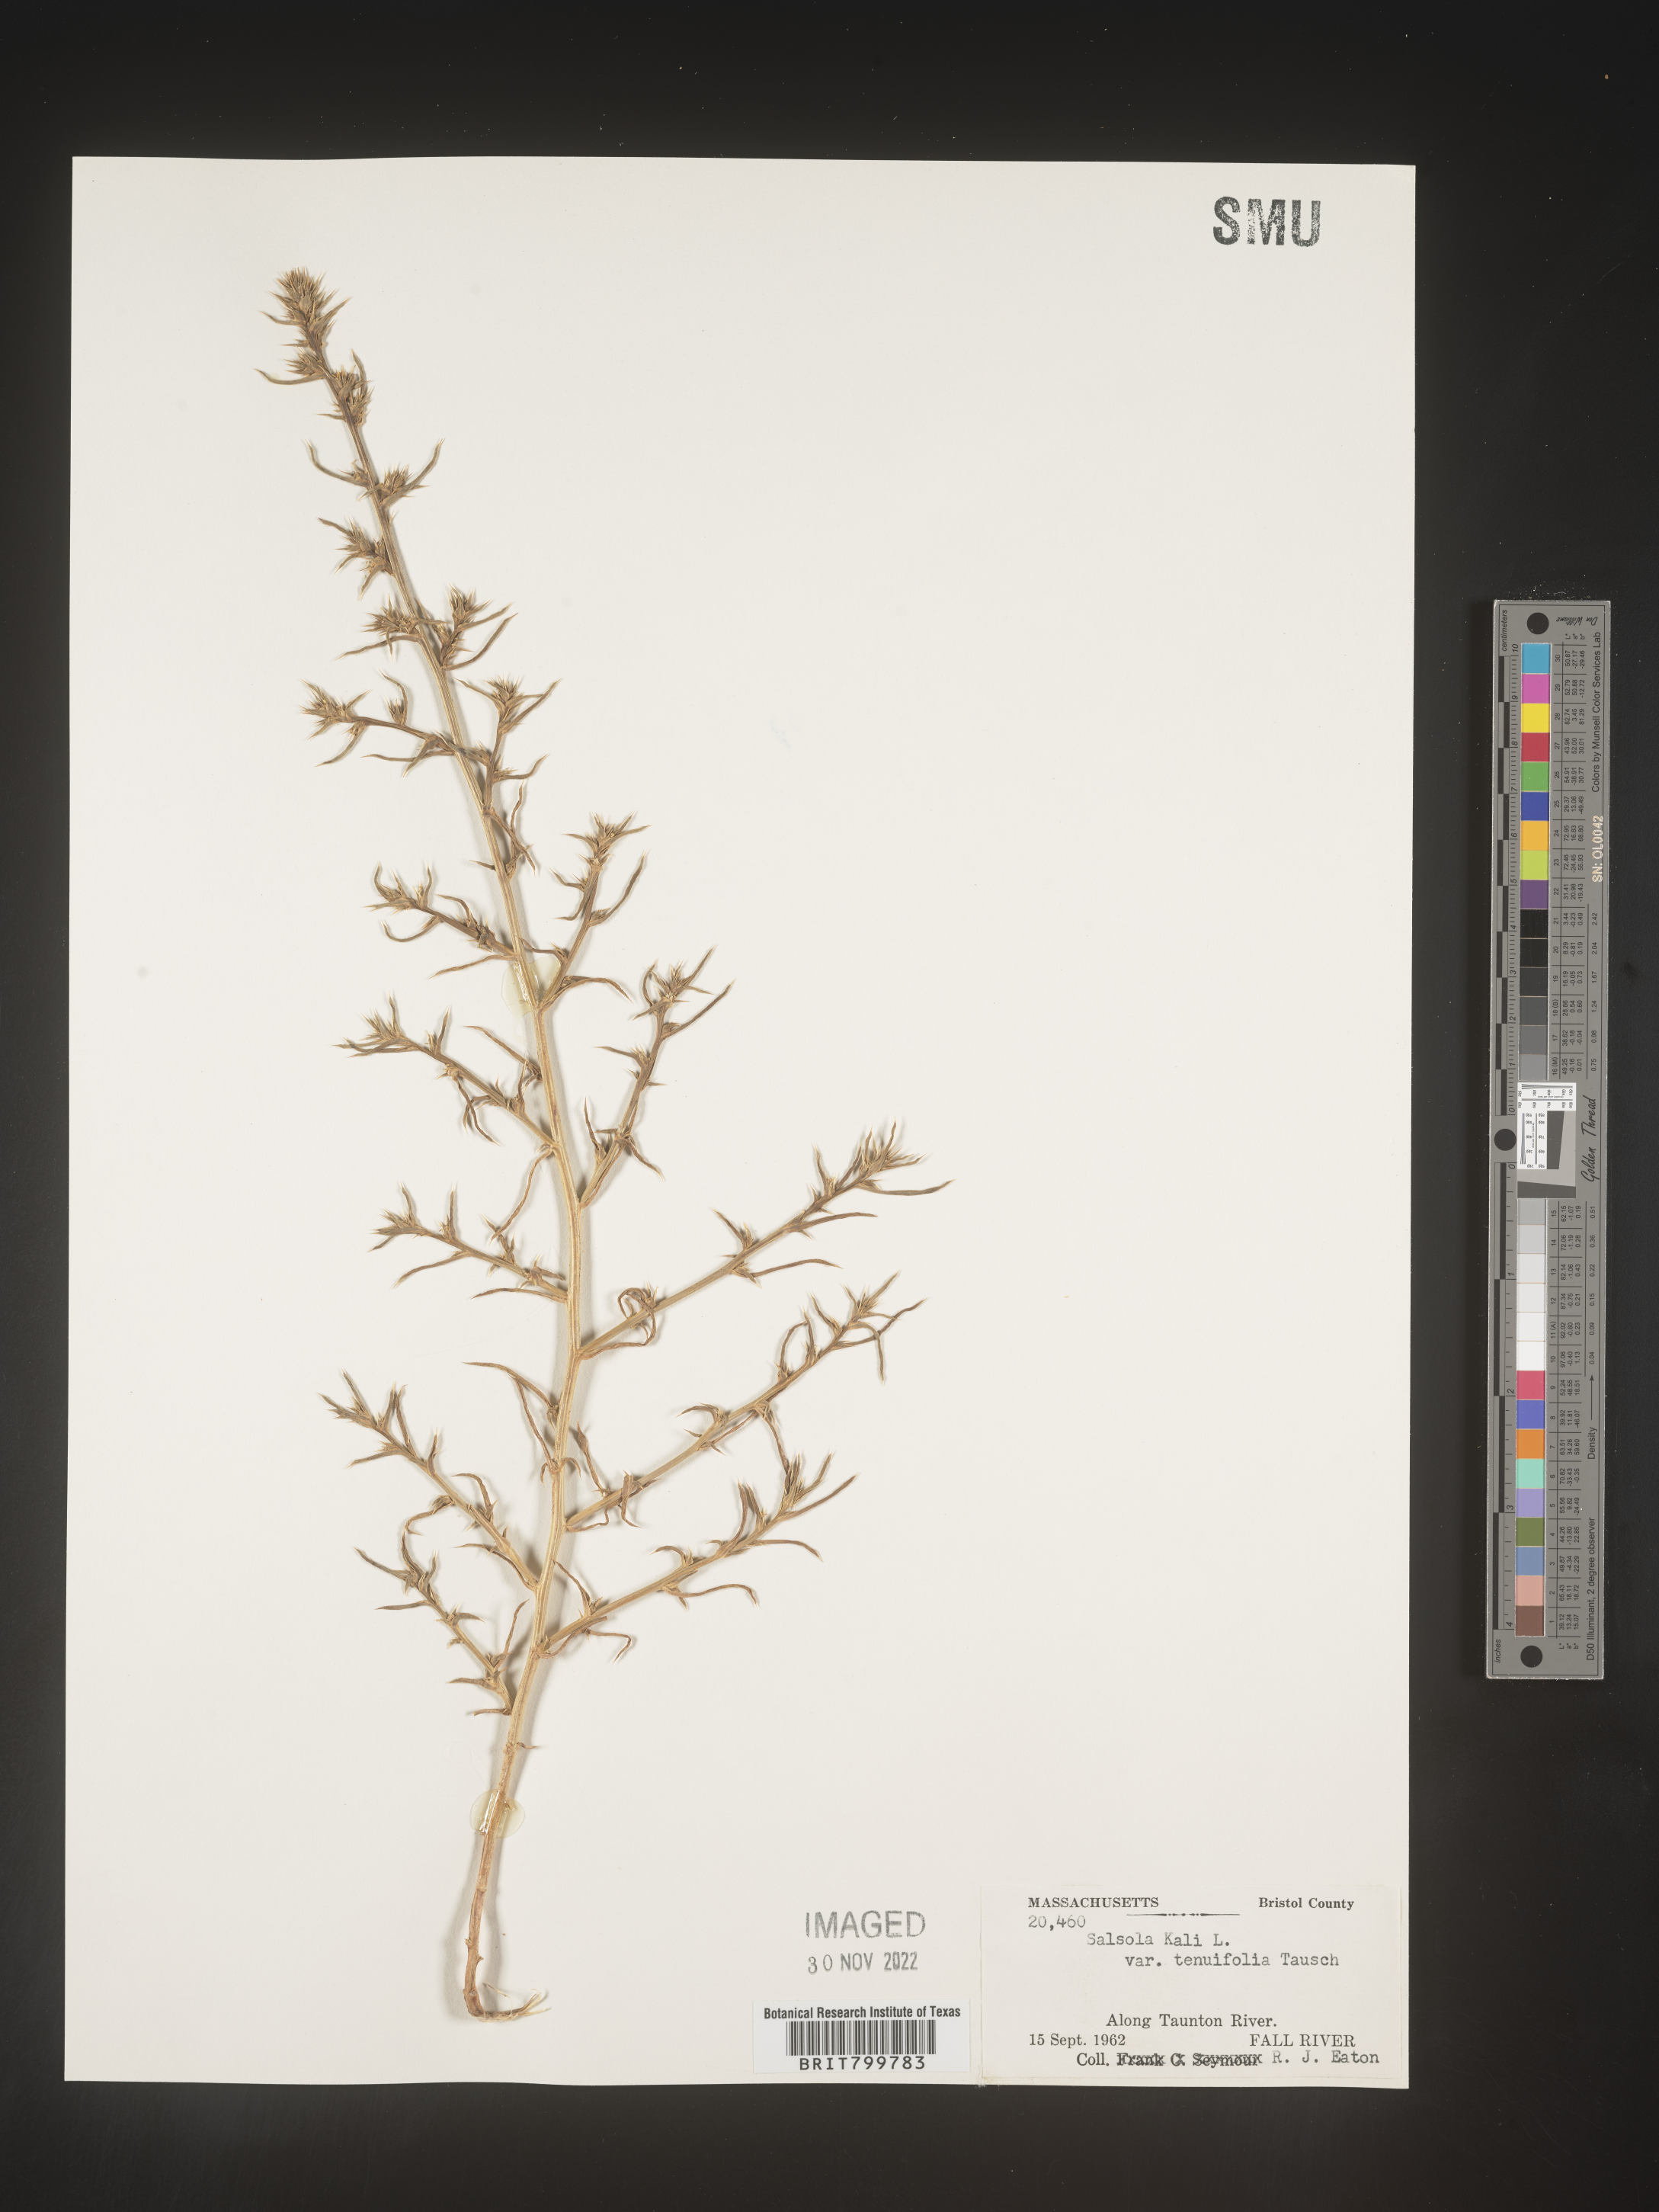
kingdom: Plantae
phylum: Tracheophyta
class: Magnoliopsida
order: Caryophyllales
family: Amaranthaceae
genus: Salsola
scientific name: Salsola tragus
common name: Prickly russian thistle
